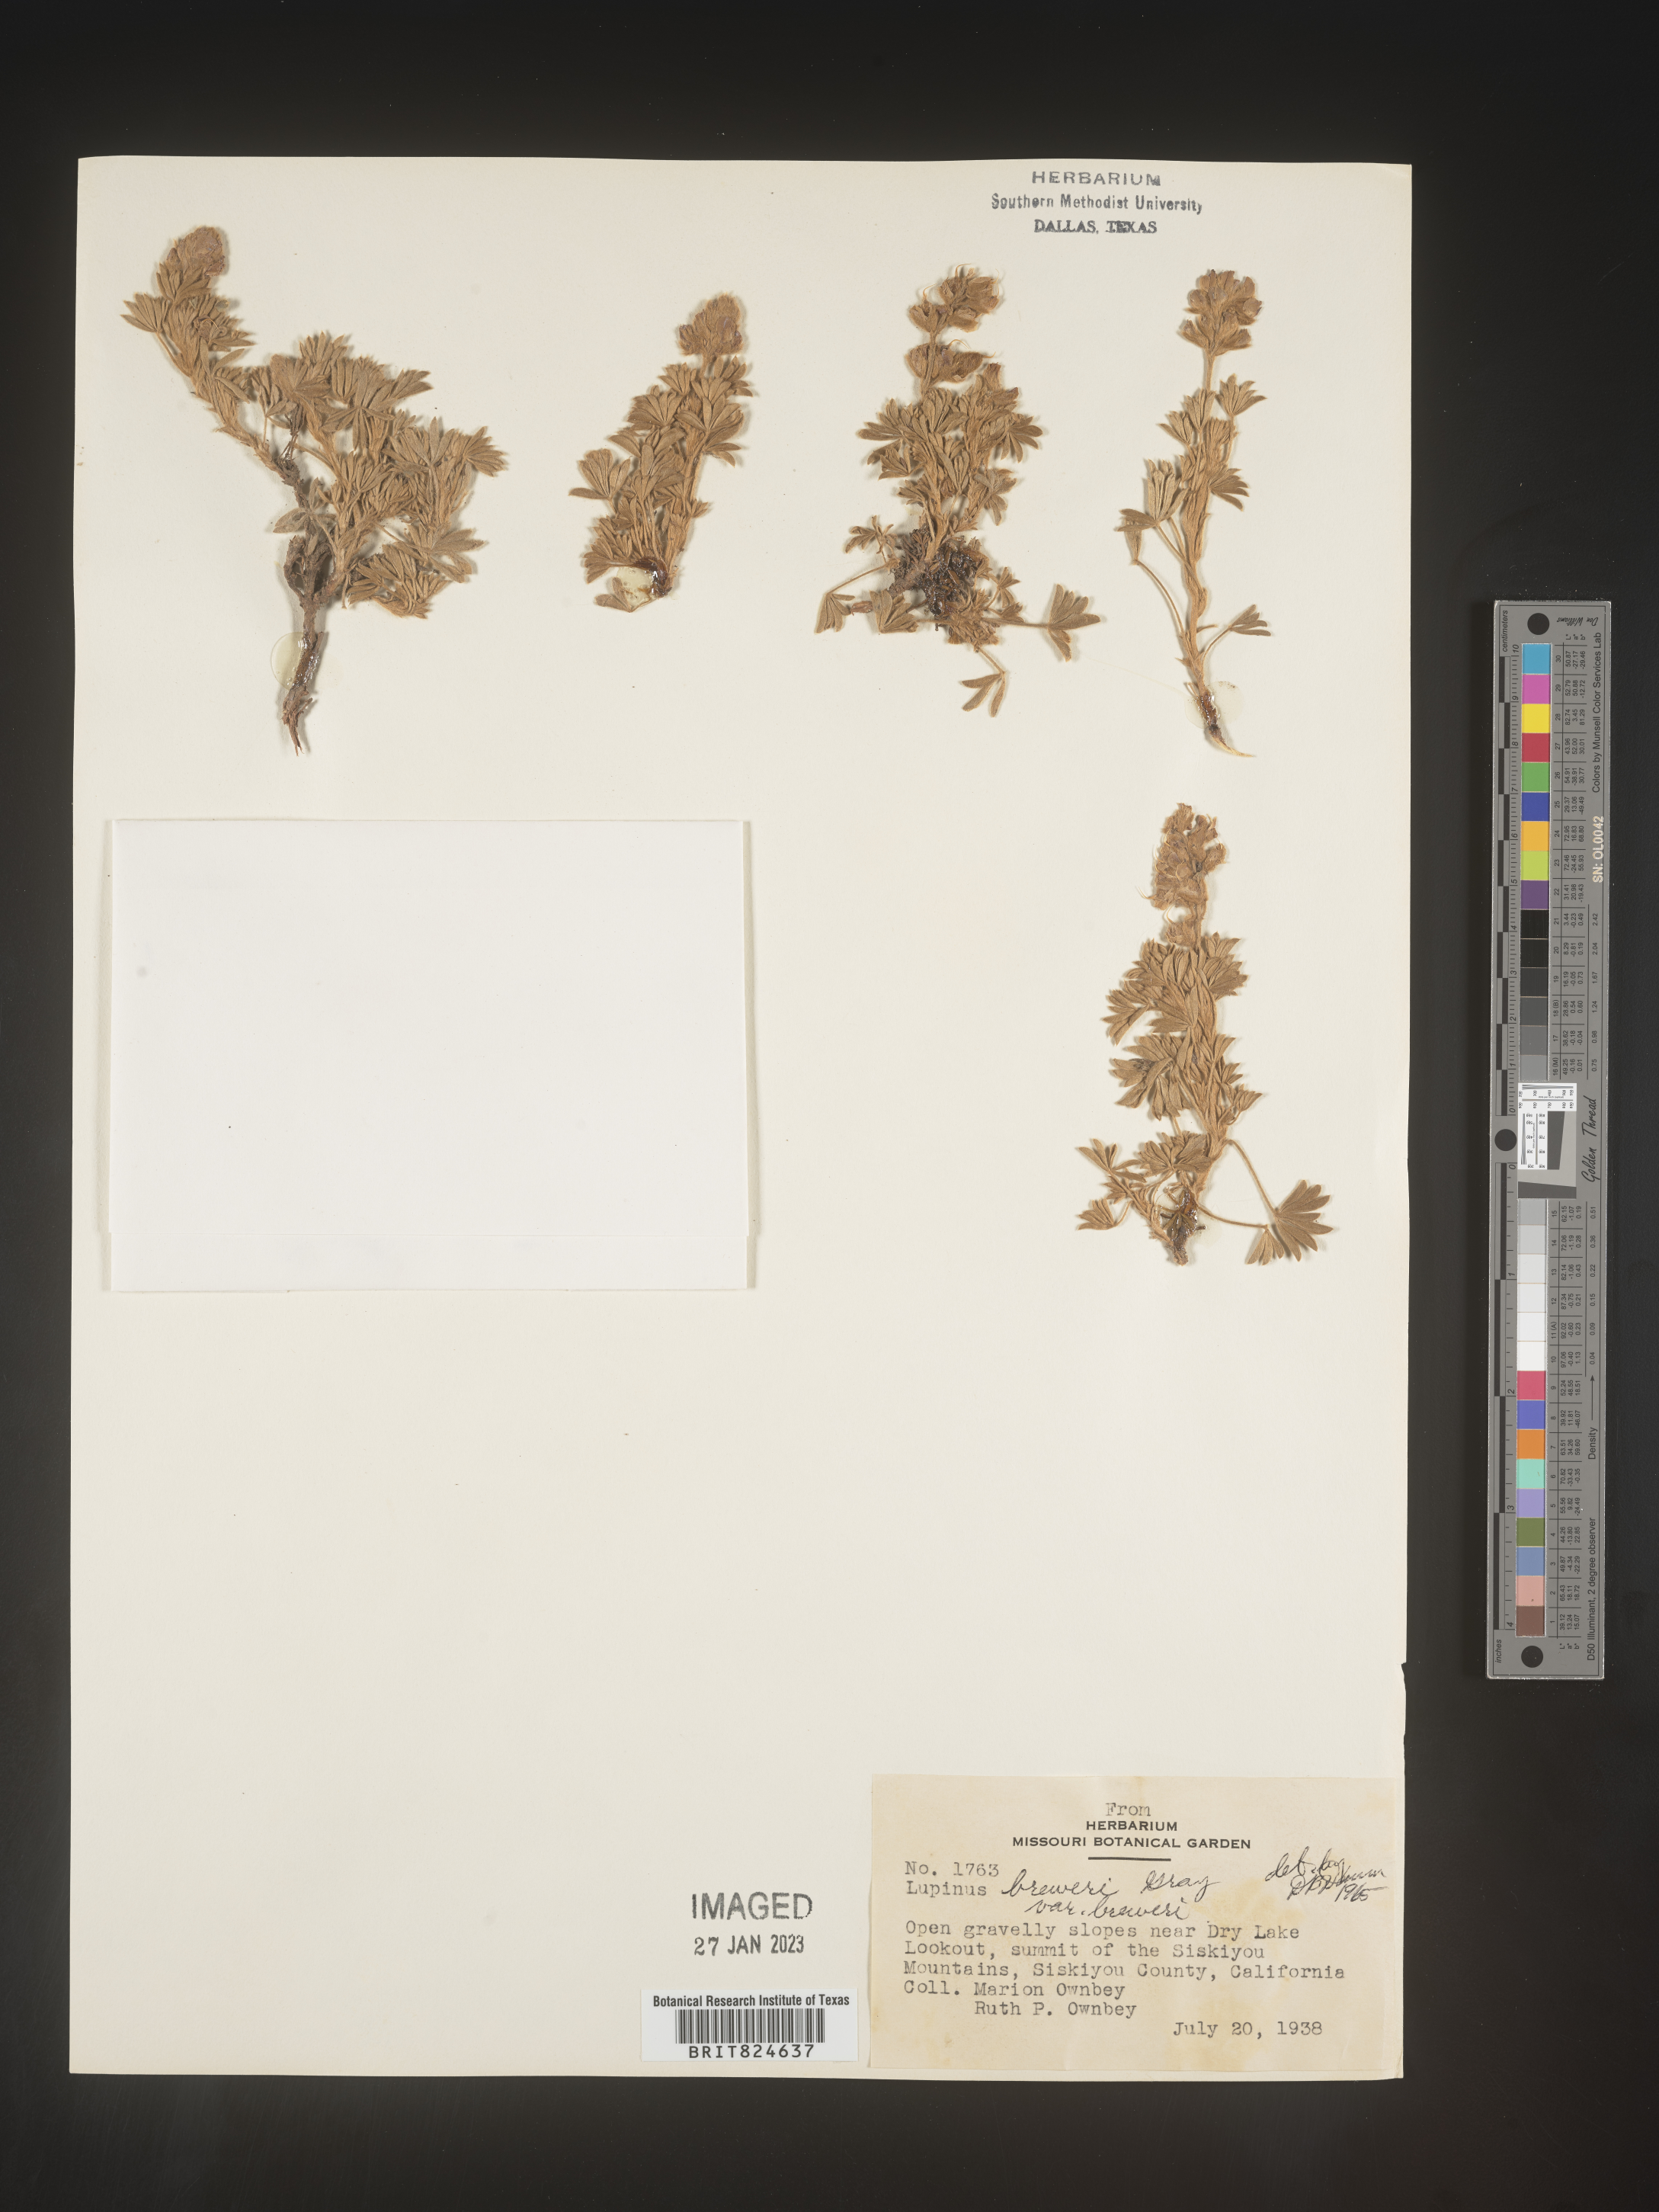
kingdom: Plantae
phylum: Tracheophyta
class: Magnoliopsida
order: Fabales
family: Fabaceae
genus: Lupinus
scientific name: Lupinus
